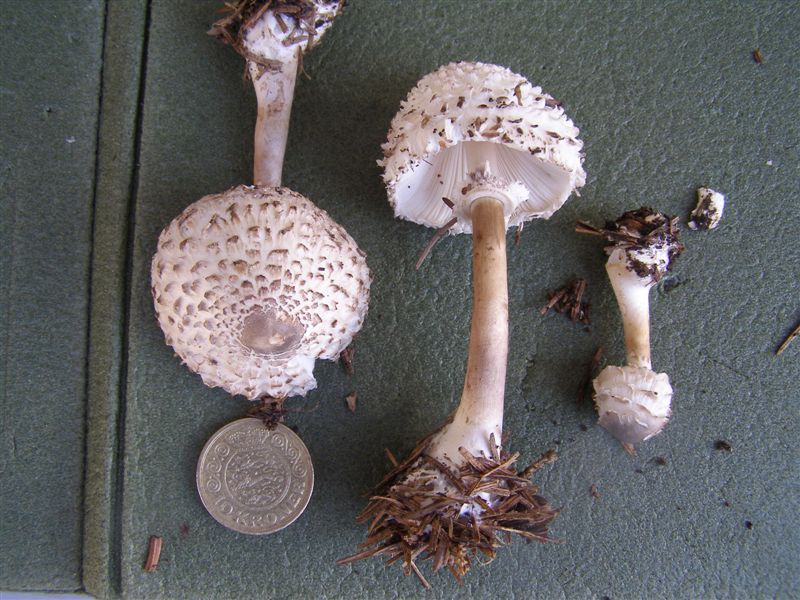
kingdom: Fungi
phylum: Basidiomycota
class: Agaricomycetes
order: Agaricales
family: Agaricaceae
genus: Leucoagaricus
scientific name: Leucoagaricus nympharum
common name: gran-silkehat
